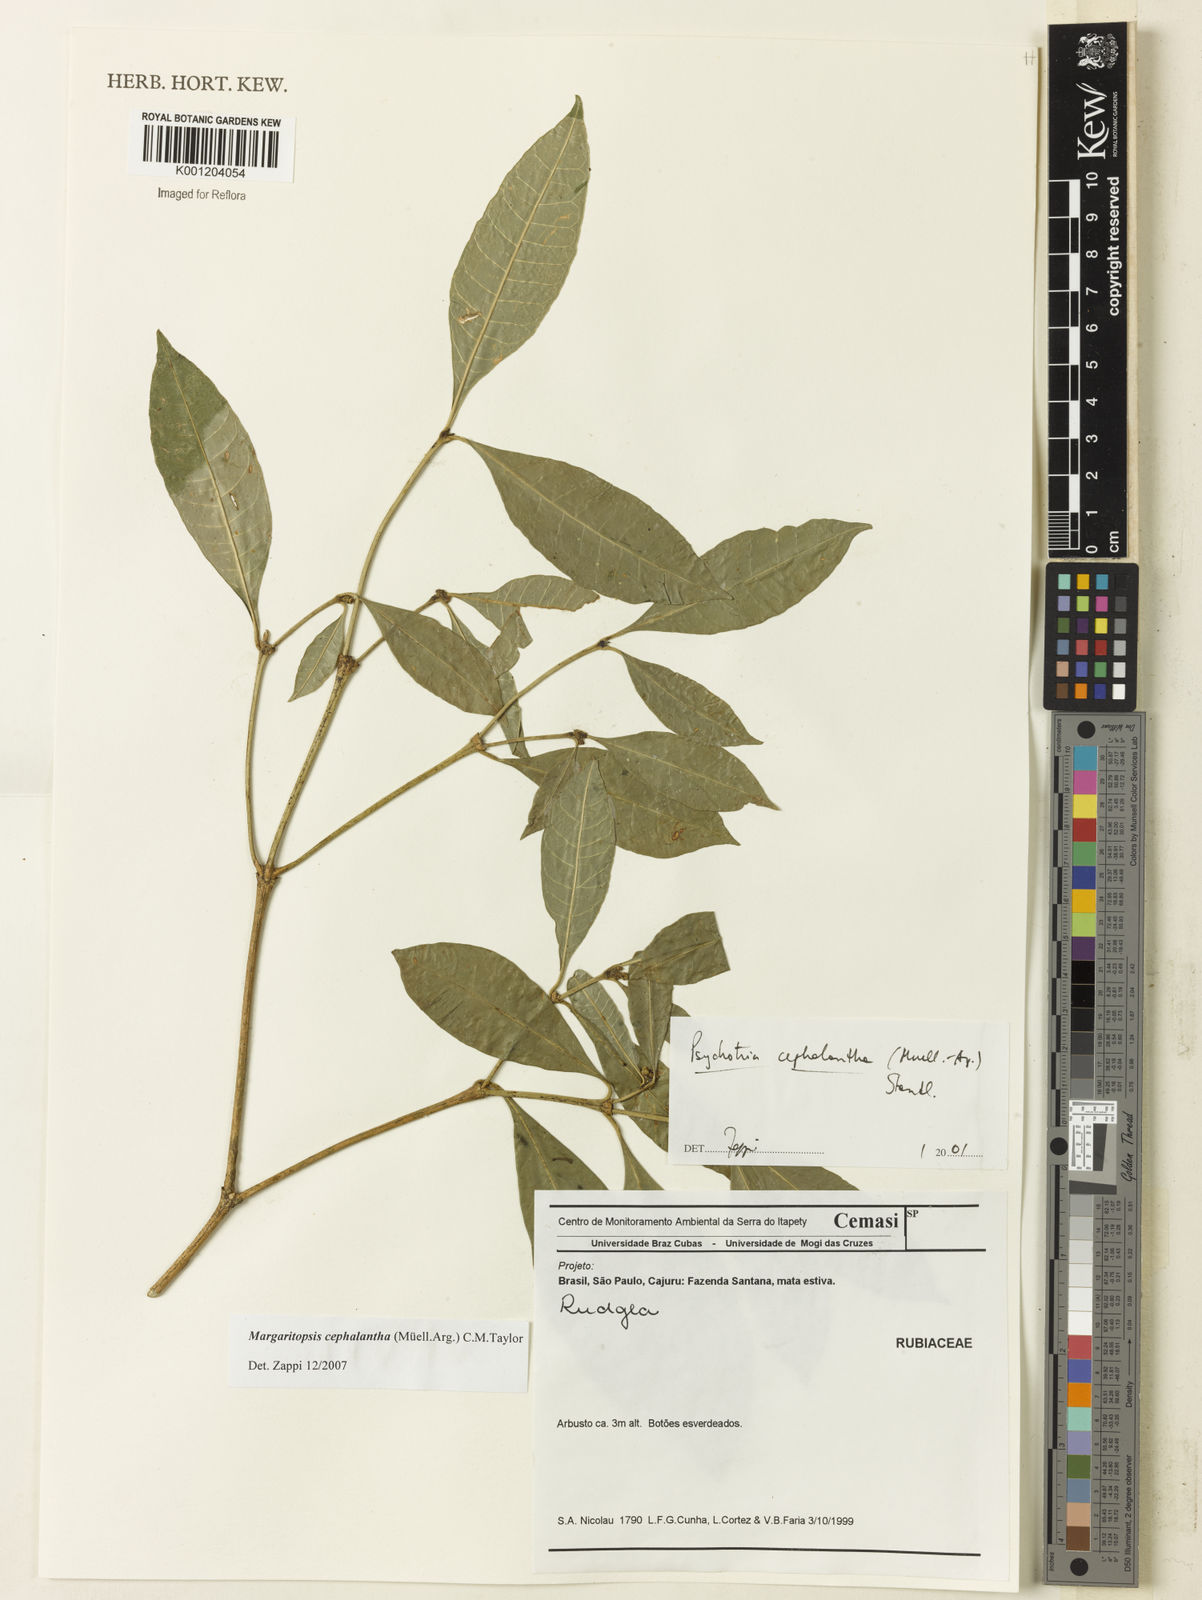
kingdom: Plantae
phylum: Tracheophyta
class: Magnoliopsida
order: Gentianales
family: Rubiaceae
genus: Eumachia
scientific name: Eumachia
